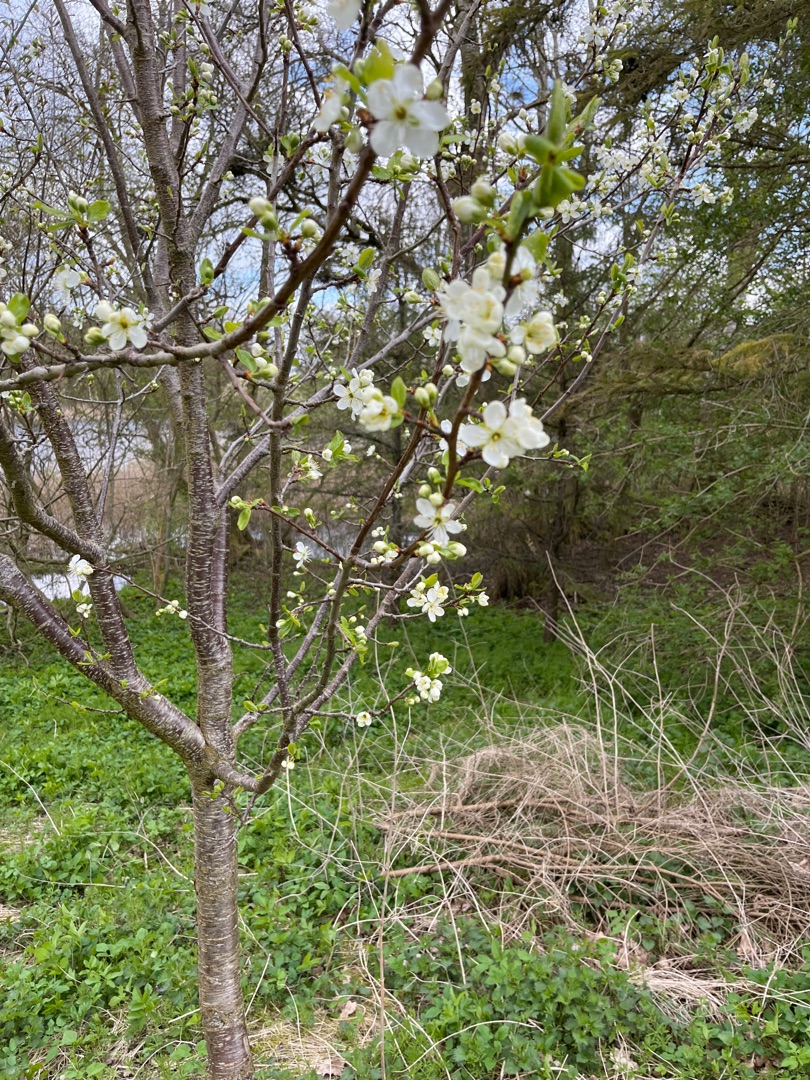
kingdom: Plantae
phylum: Tracheophyta
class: Magnoliopsida
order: Rosales
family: Rosaceae
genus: Prunus
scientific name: Prunus cerasifera
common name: Mirabel
